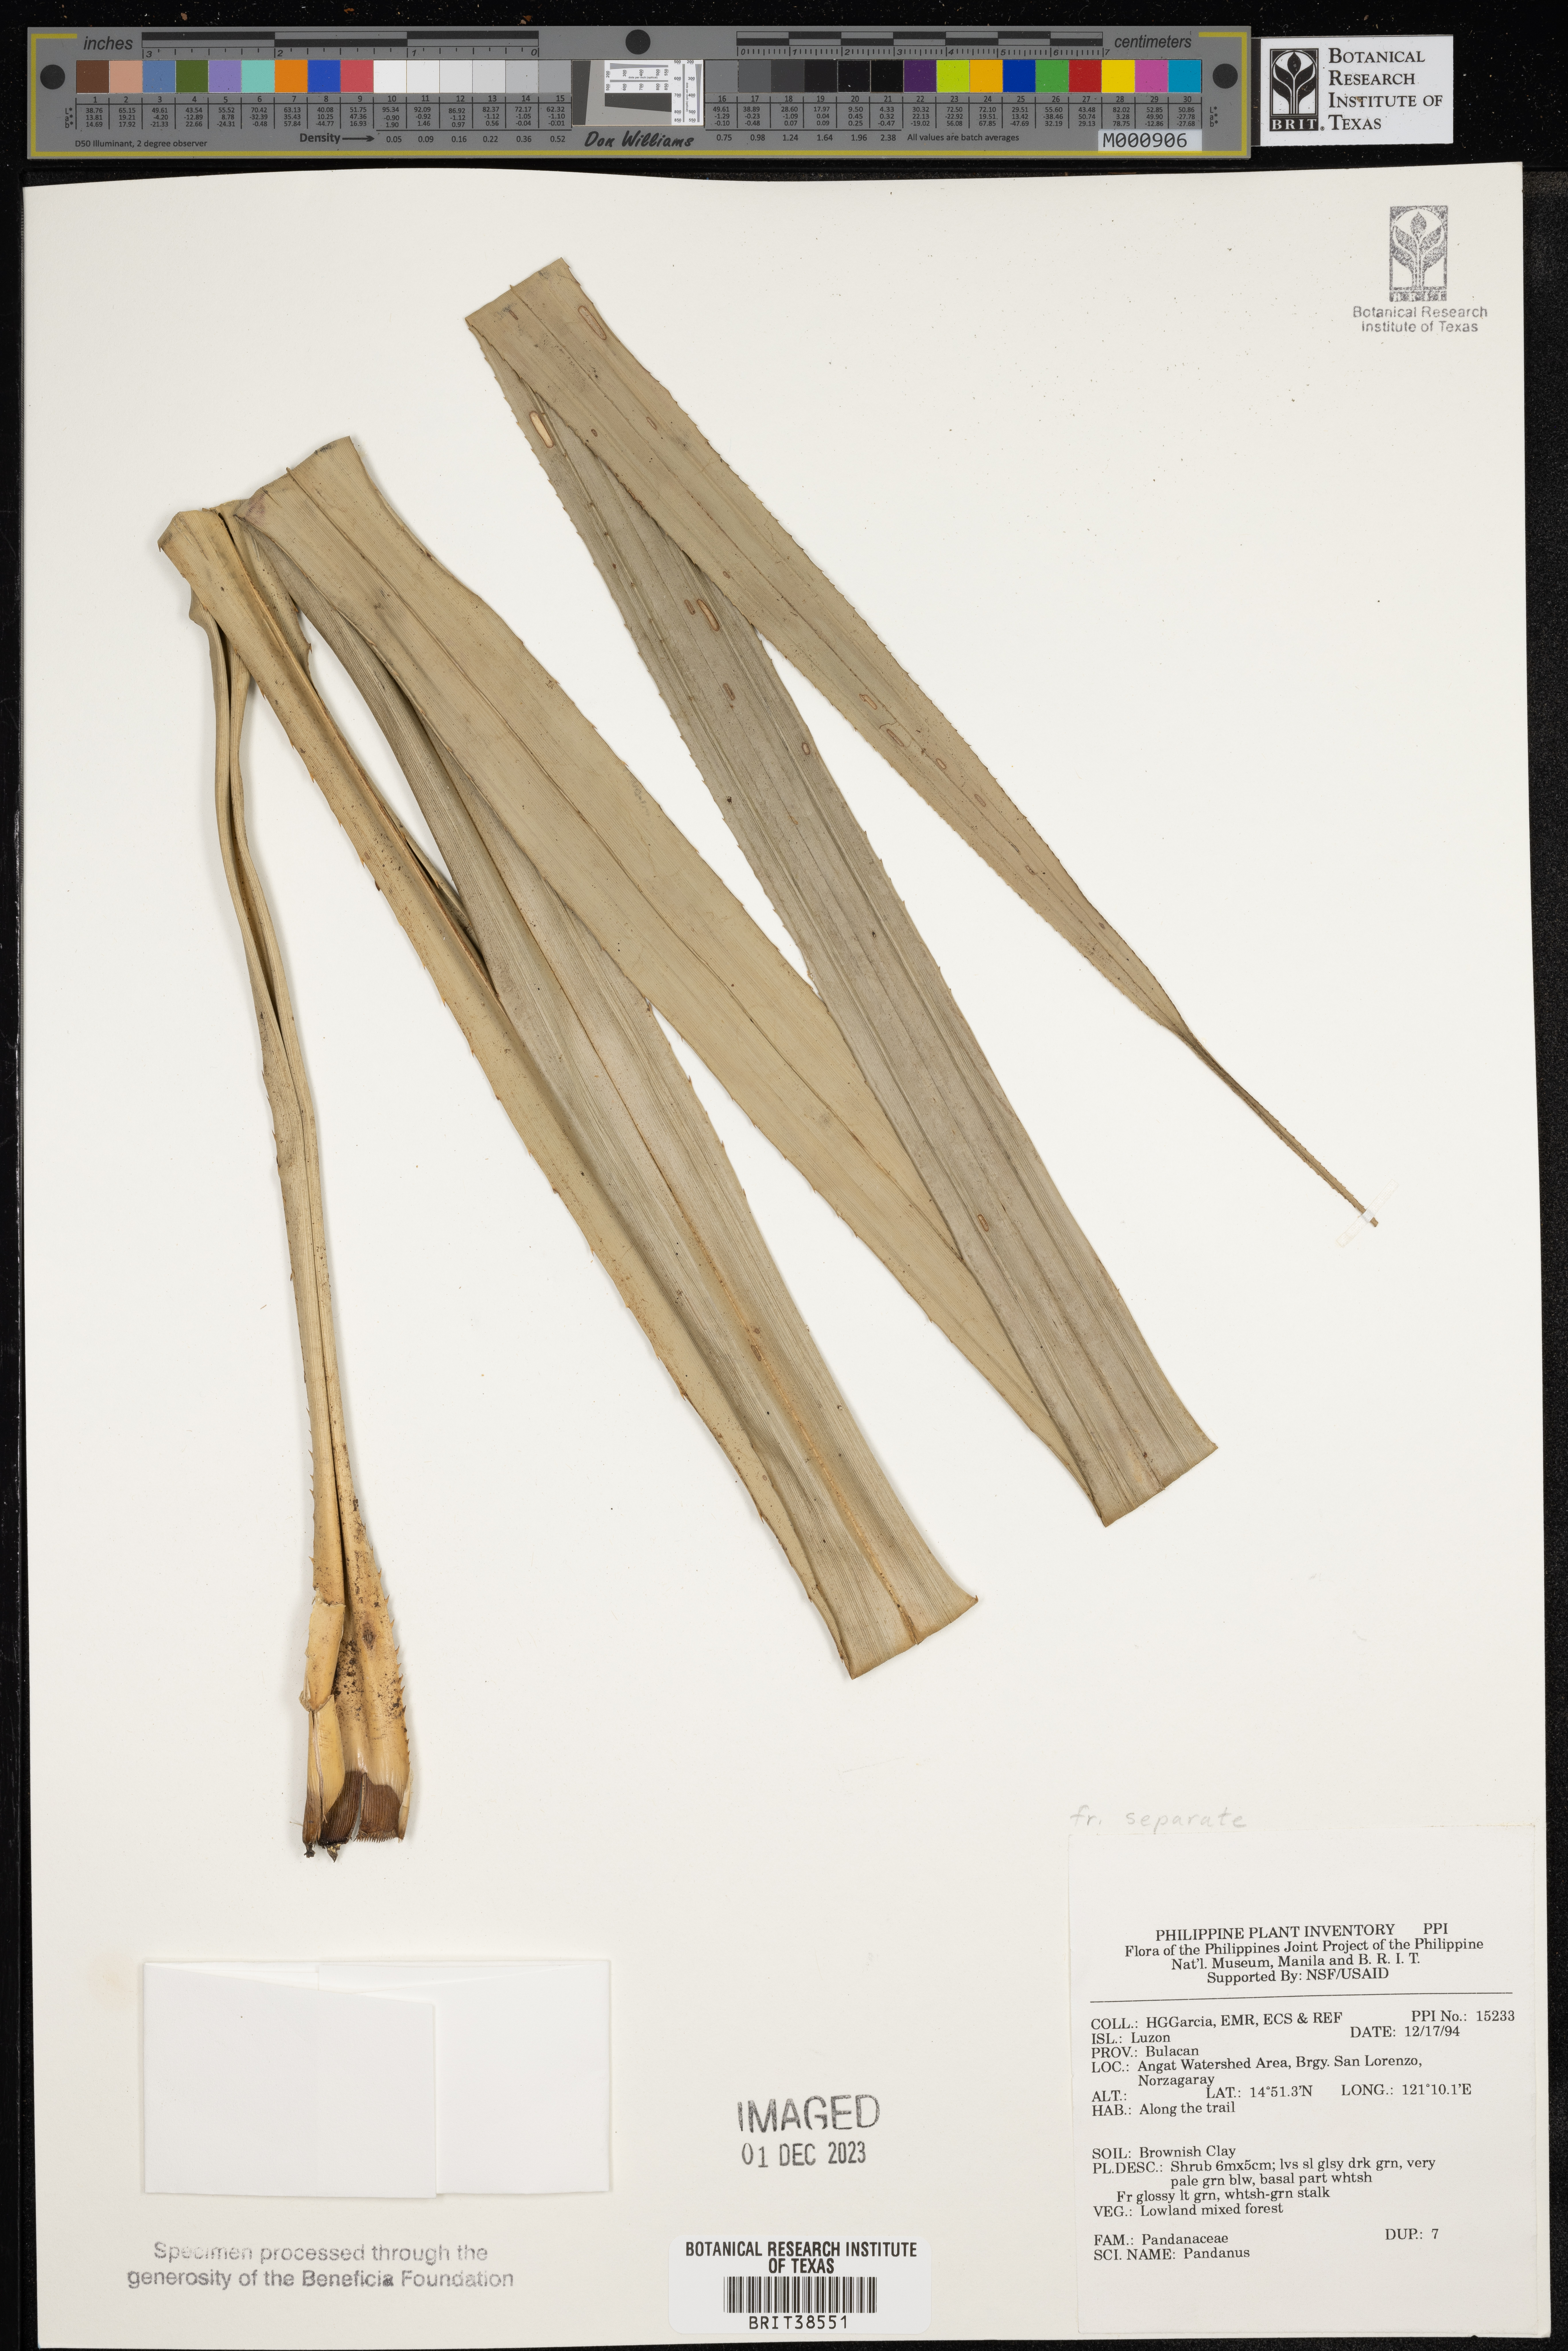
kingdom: Plantae
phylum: Tracheophyta
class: Liliopsida
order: Pandanales
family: Pandanaceae
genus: Pandanus
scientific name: Pandanus
